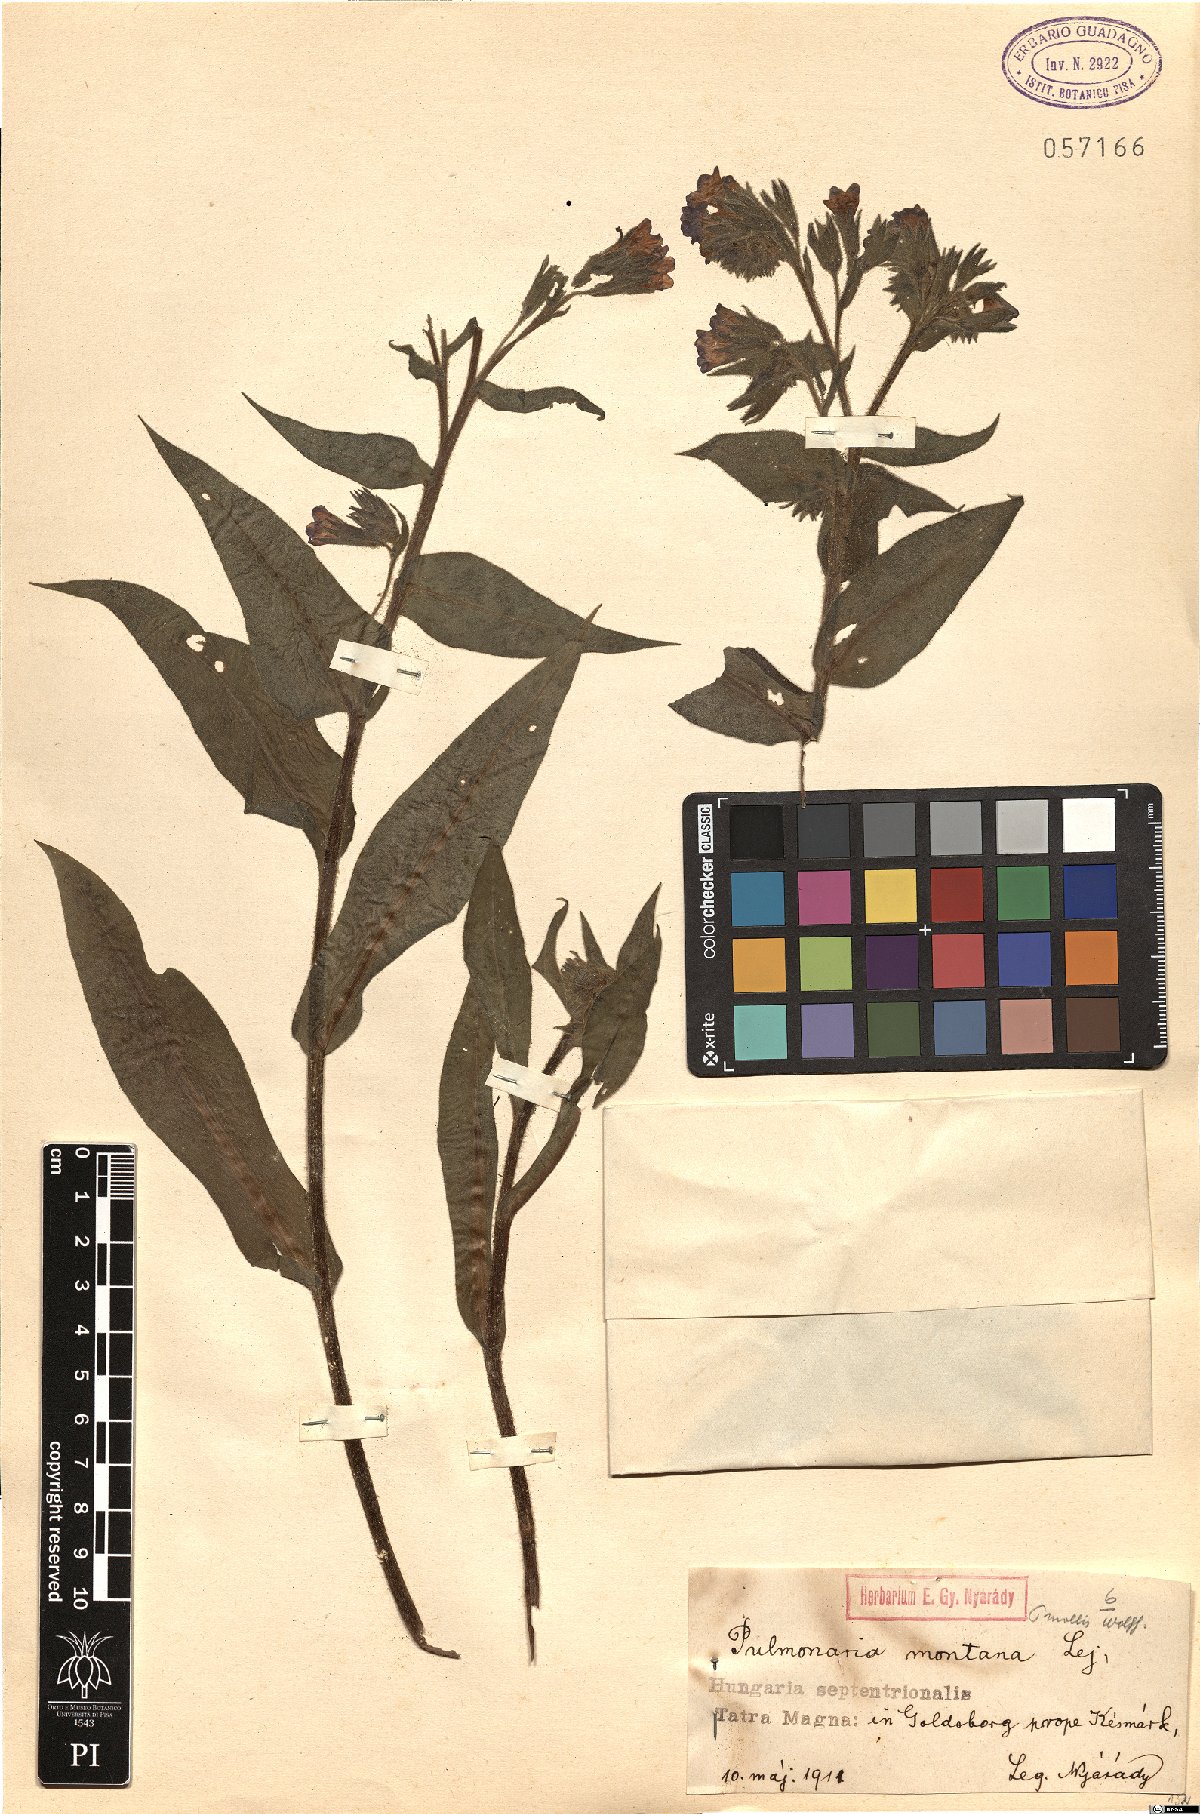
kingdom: Plantae
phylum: Tracheophyta
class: Magnoliopsida
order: Boraginales
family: Boraginaceae
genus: Pulmonaria
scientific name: Pulmonaria mollis
